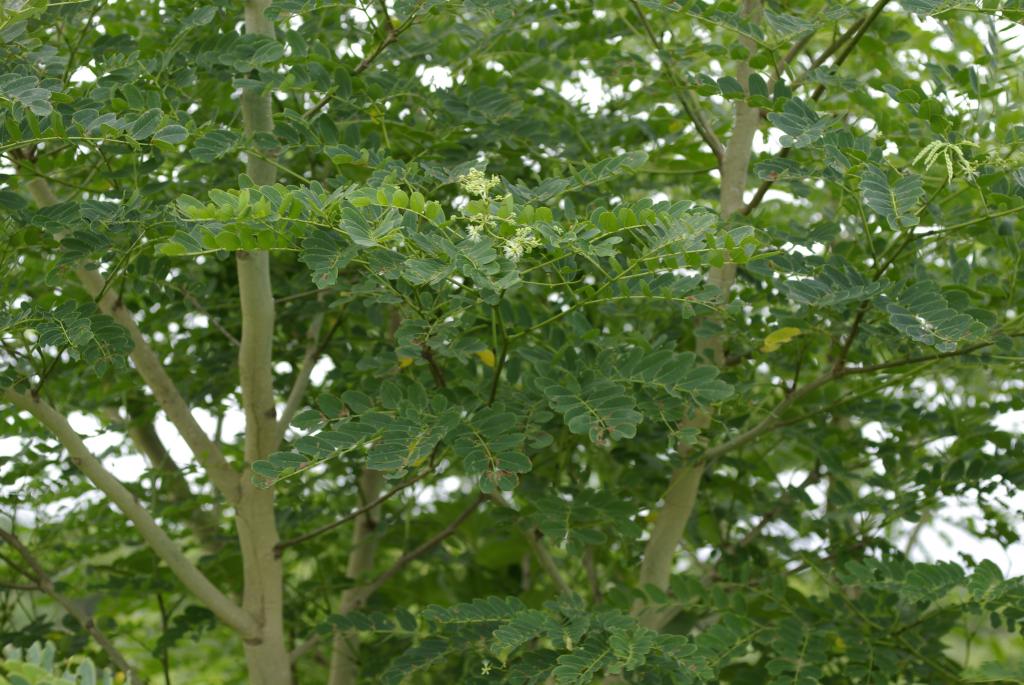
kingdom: Plantae
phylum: Tracheophyta
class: Magnoliopsida
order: Fabales
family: Fabaceae
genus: Albizia
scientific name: Albizia procera
